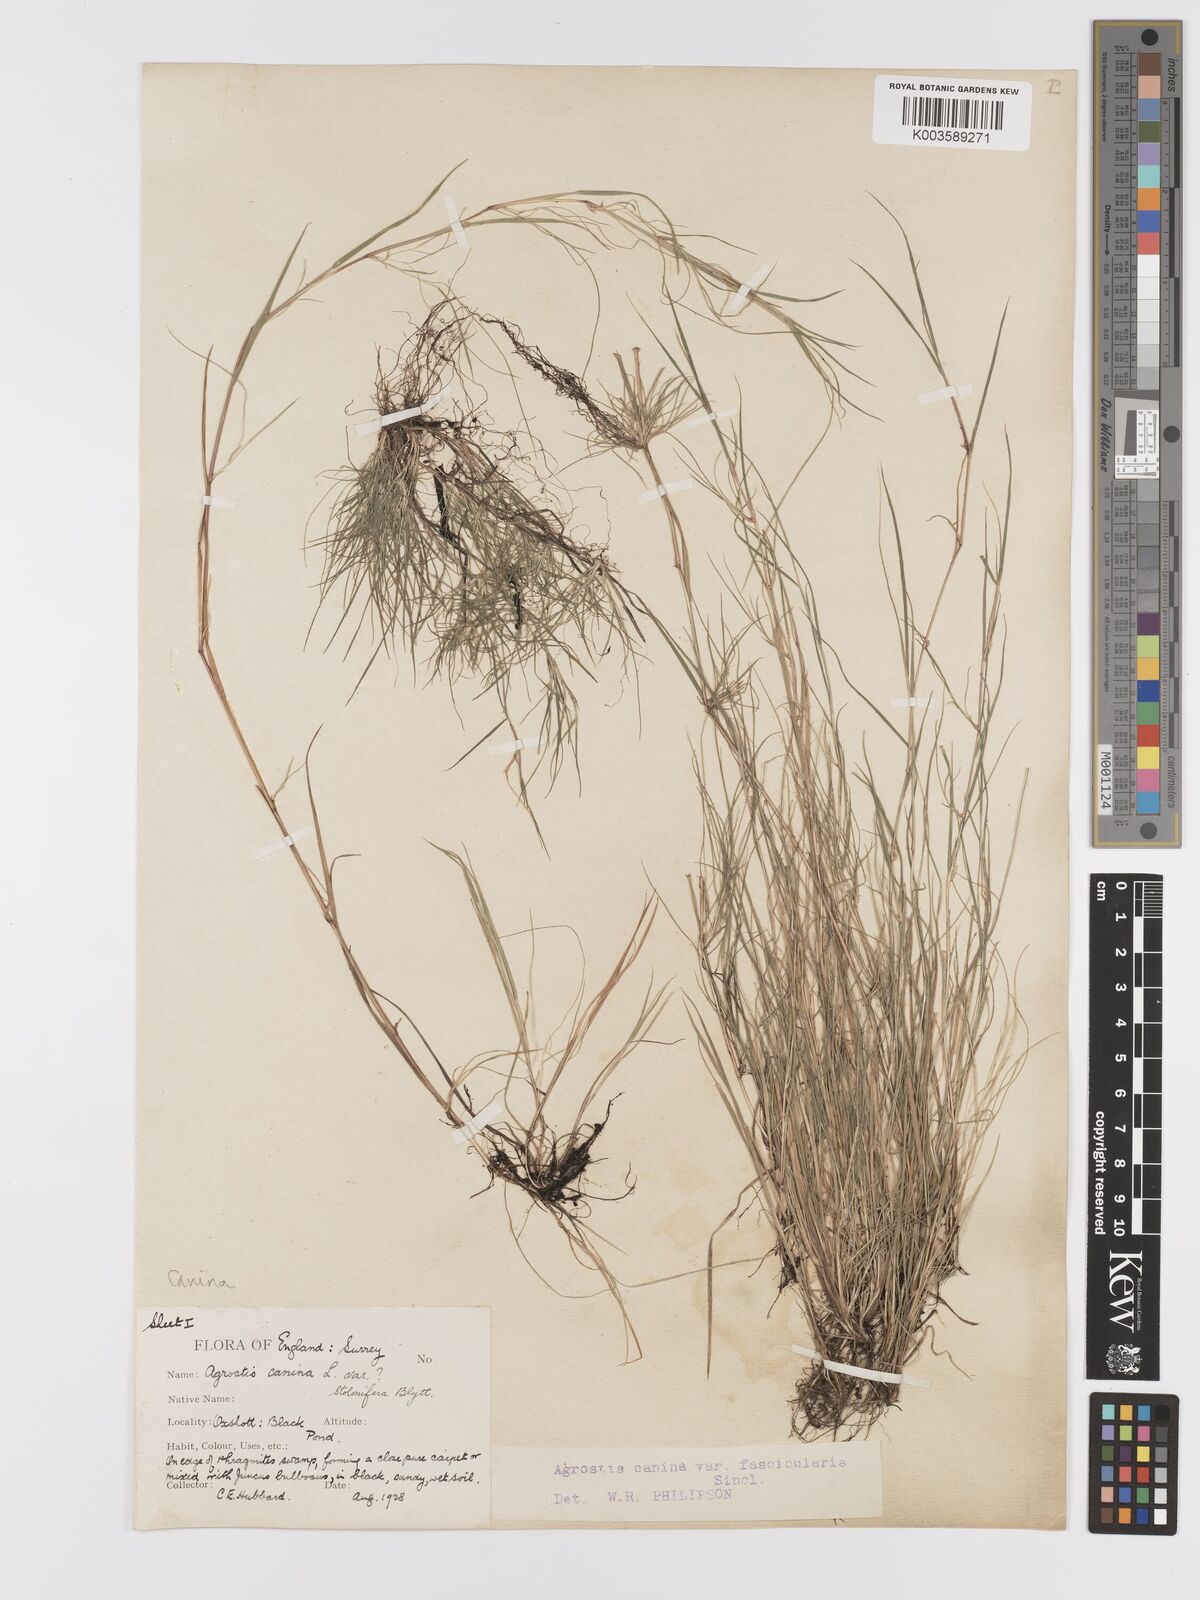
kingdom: Plantae
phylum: Tracheophyta
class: Liliopsida
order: Poales
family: Poaceae
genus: Agrostis
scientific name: Agrostis canina
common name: Velvet bent
